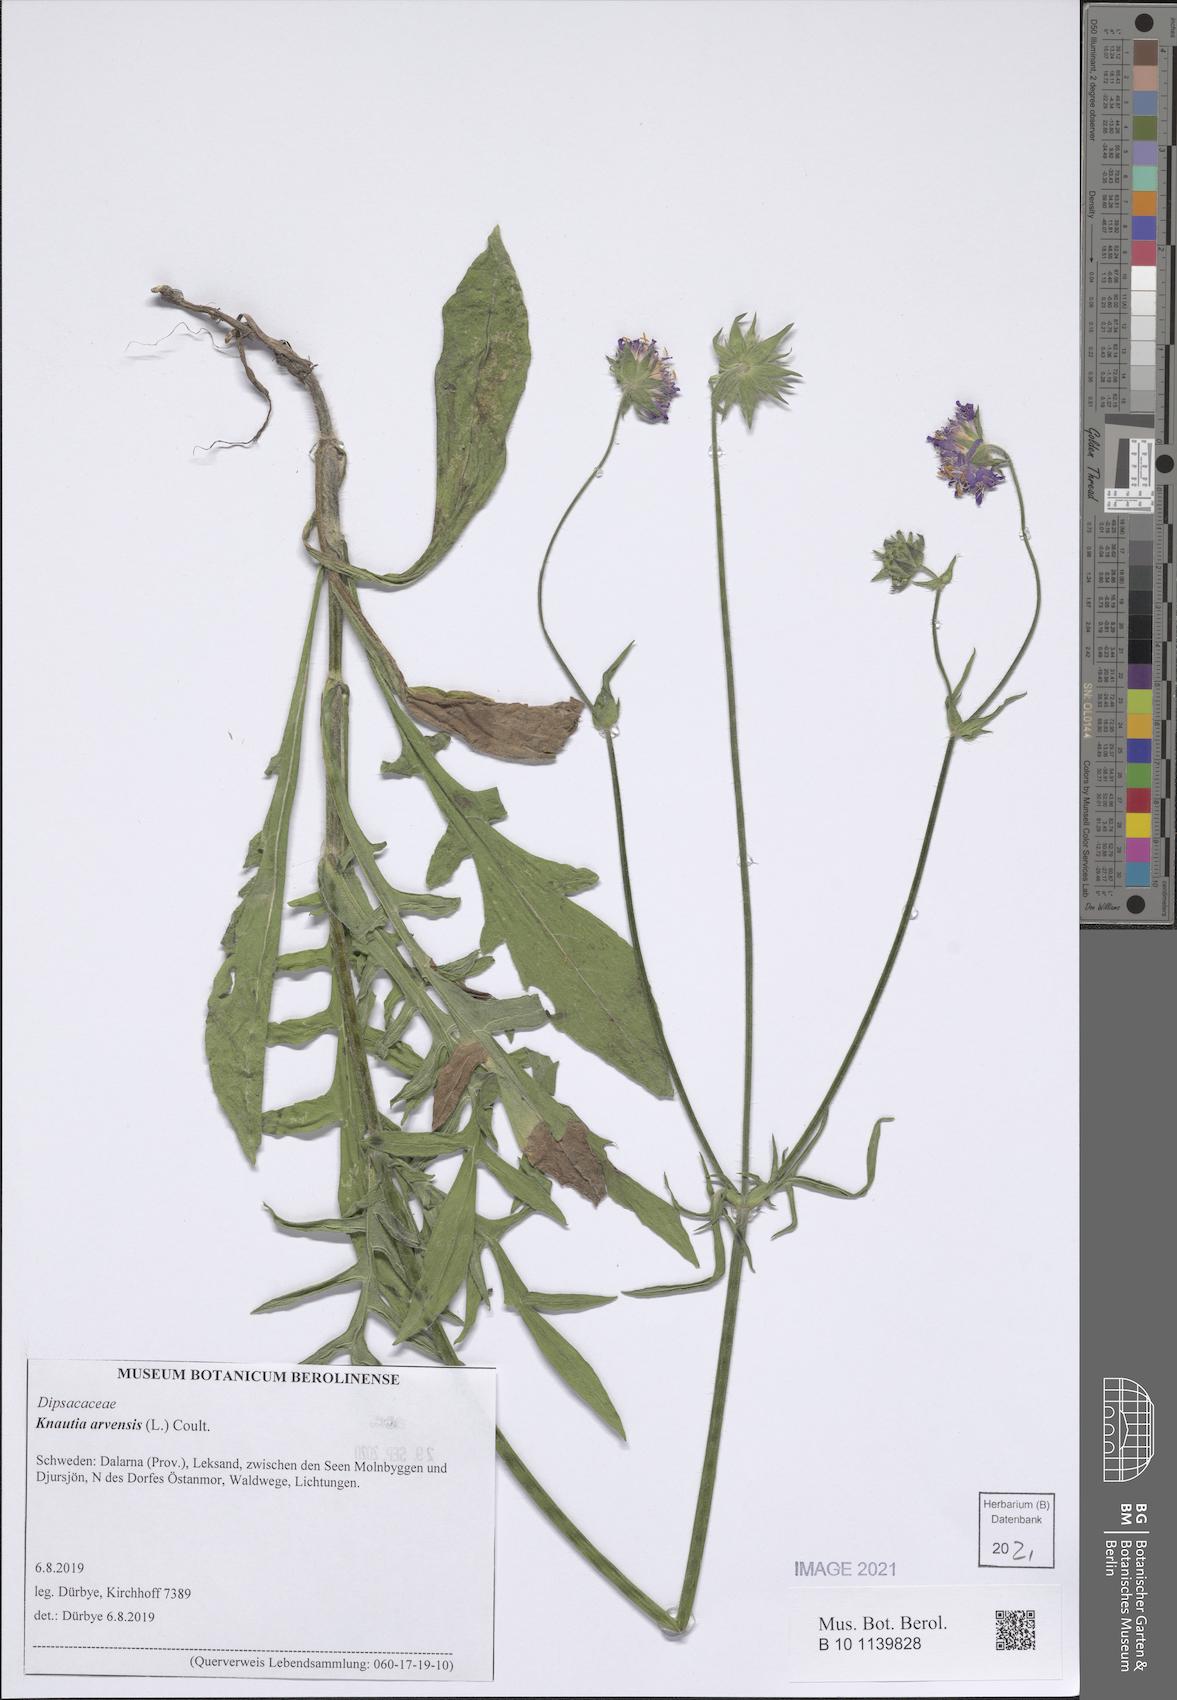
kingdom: Plantae
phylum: Tracheophyta
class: Magnoliopsida
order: Dipsacales
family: Caprifoliaceae
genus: Knautia
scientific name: Knautia arvensis
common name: Field scabiosa
